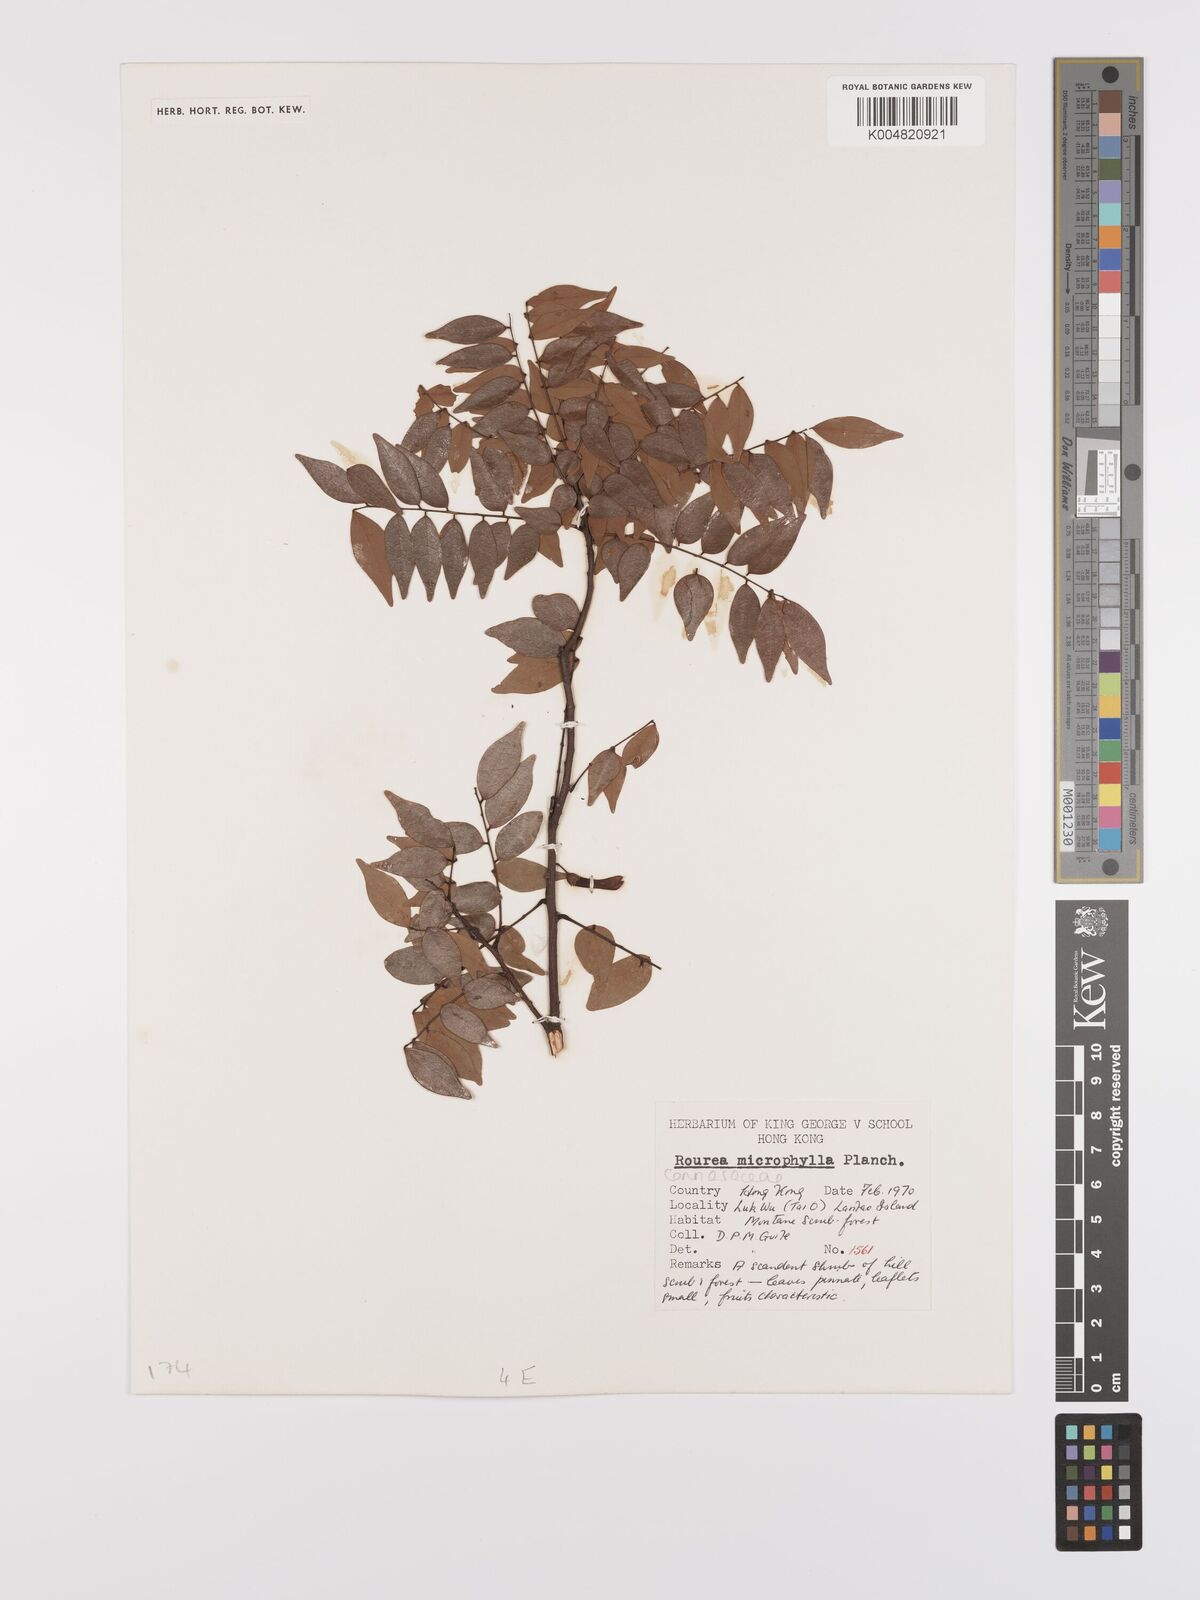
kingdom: Plantae
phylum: Tracheophyta
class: Magnoliopsida
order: Oxalidales
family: Connaraceae
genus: Rourea
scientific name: Rourea microphylla
